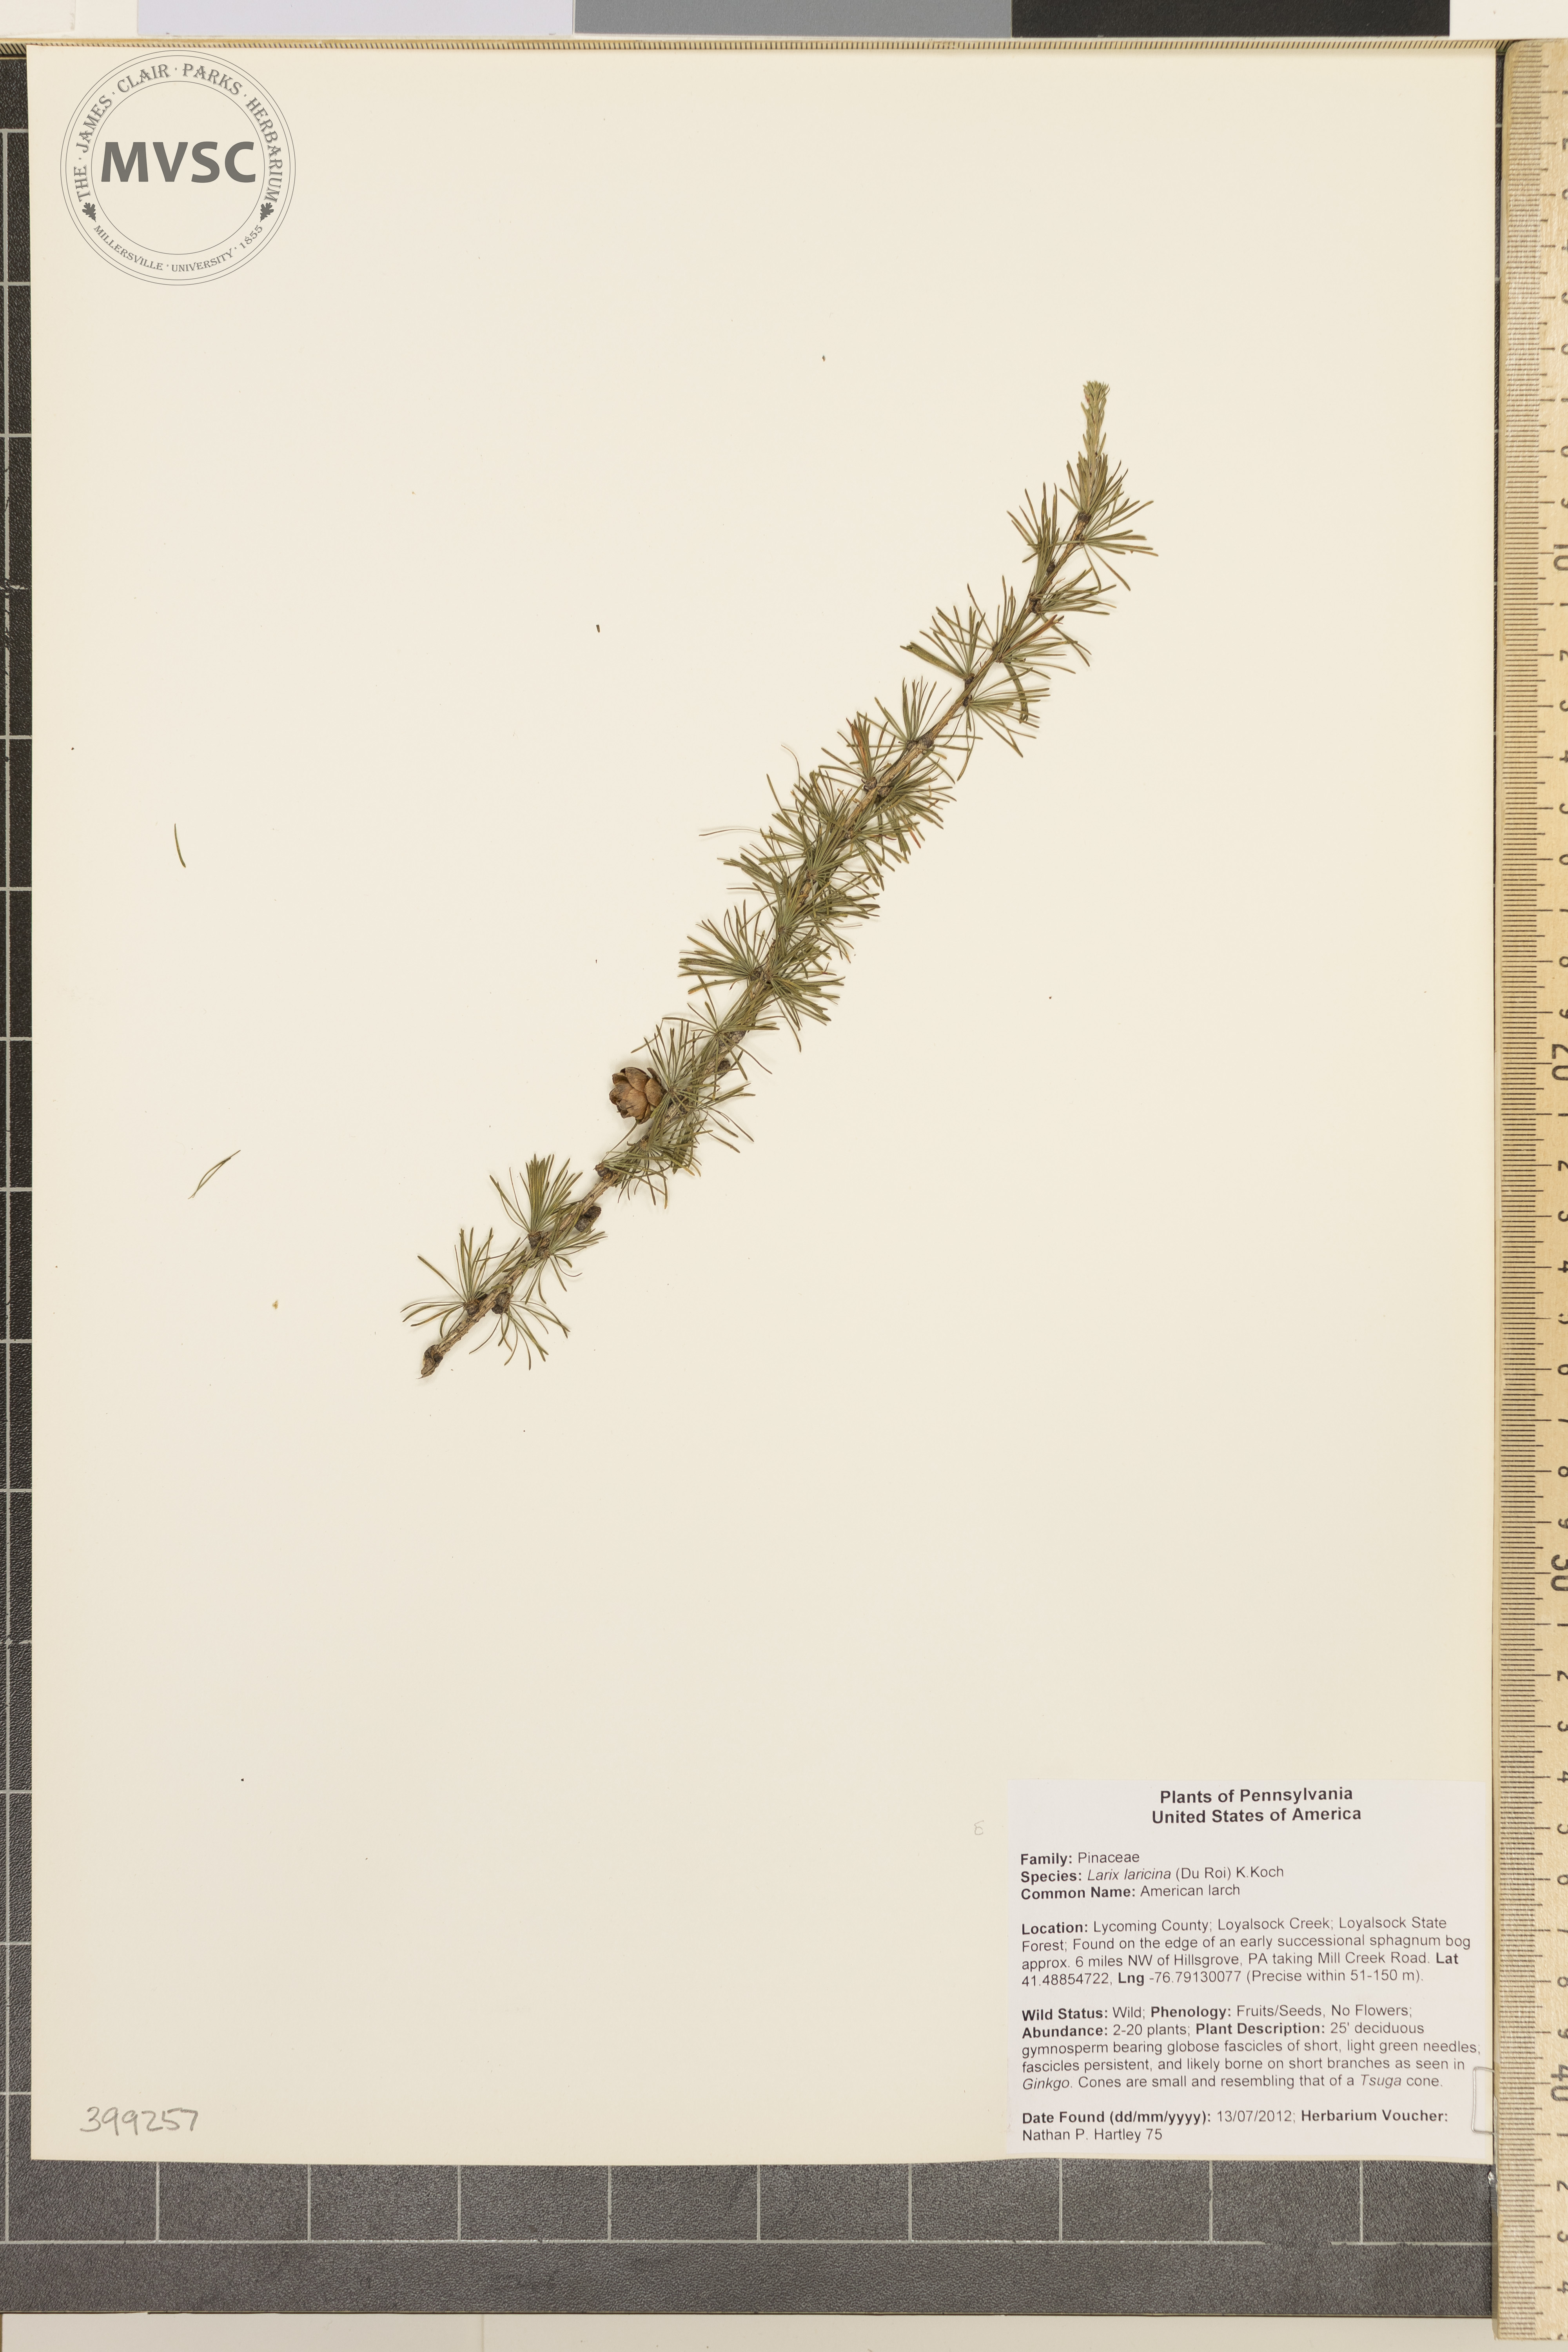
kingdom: Plantae
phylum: Tracheophyta
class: Pinopsida
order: Pinales
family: Pinaceae
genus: Larix
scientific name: Larix laricina
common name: American larch
